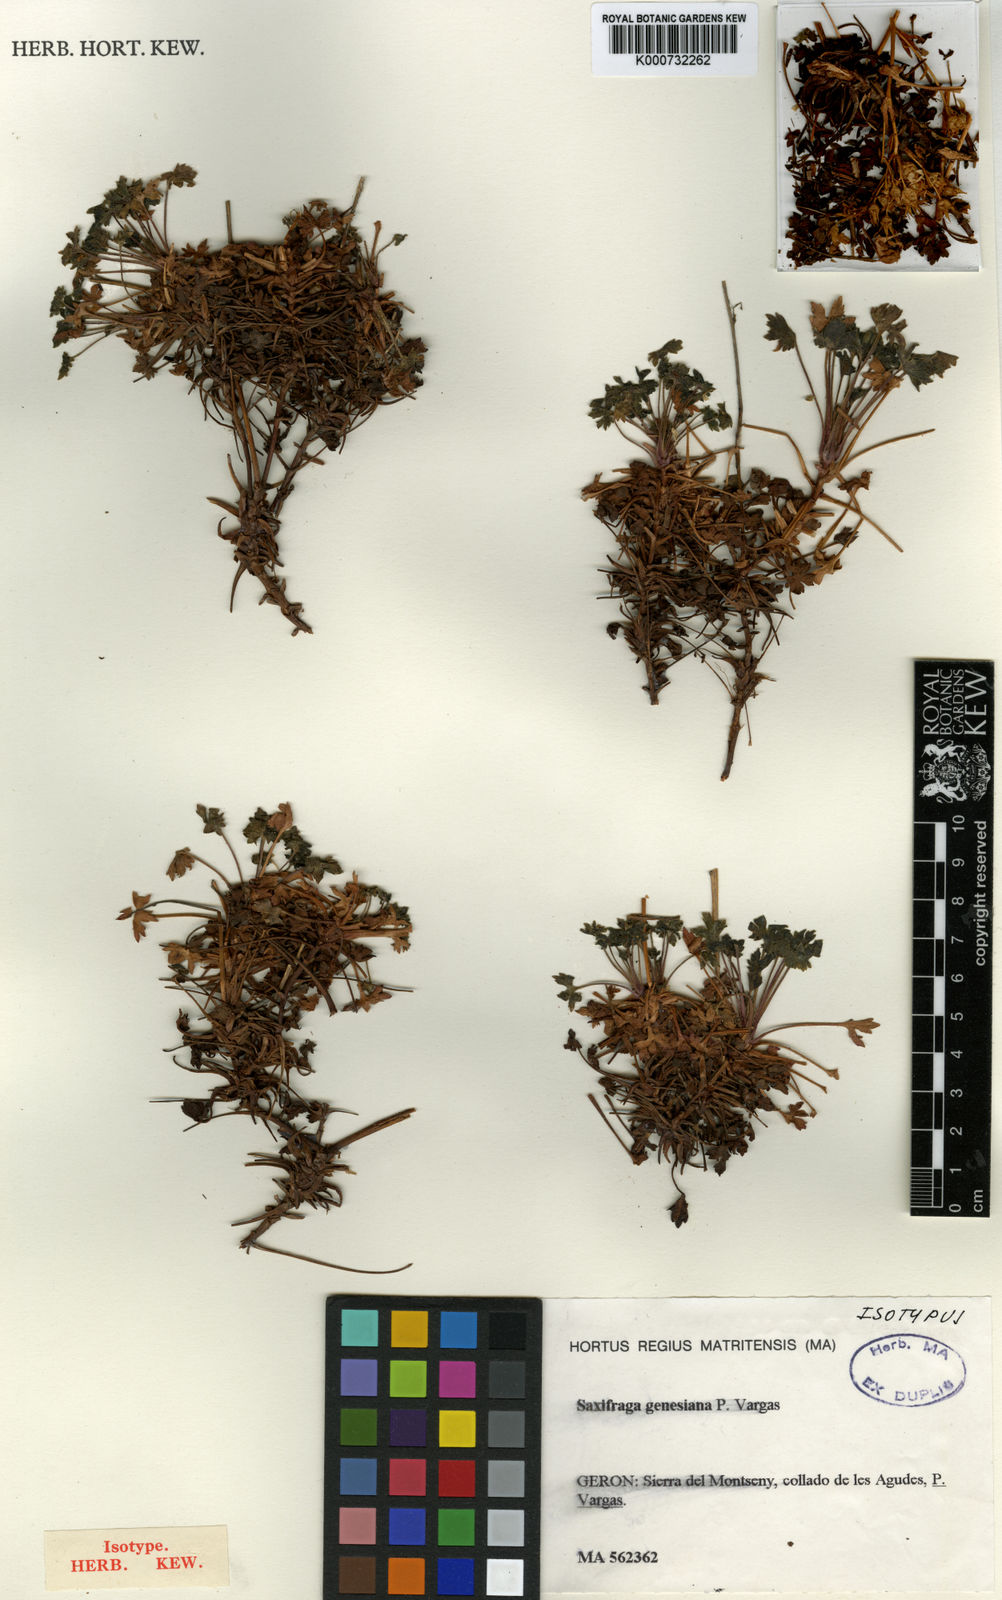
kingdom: Plantae
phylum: Tracheophyta
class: Magnoliopsida
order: Saxifragales
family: Saxifragaceae
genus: Saxifraga
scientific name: Saxifraga genesiana
